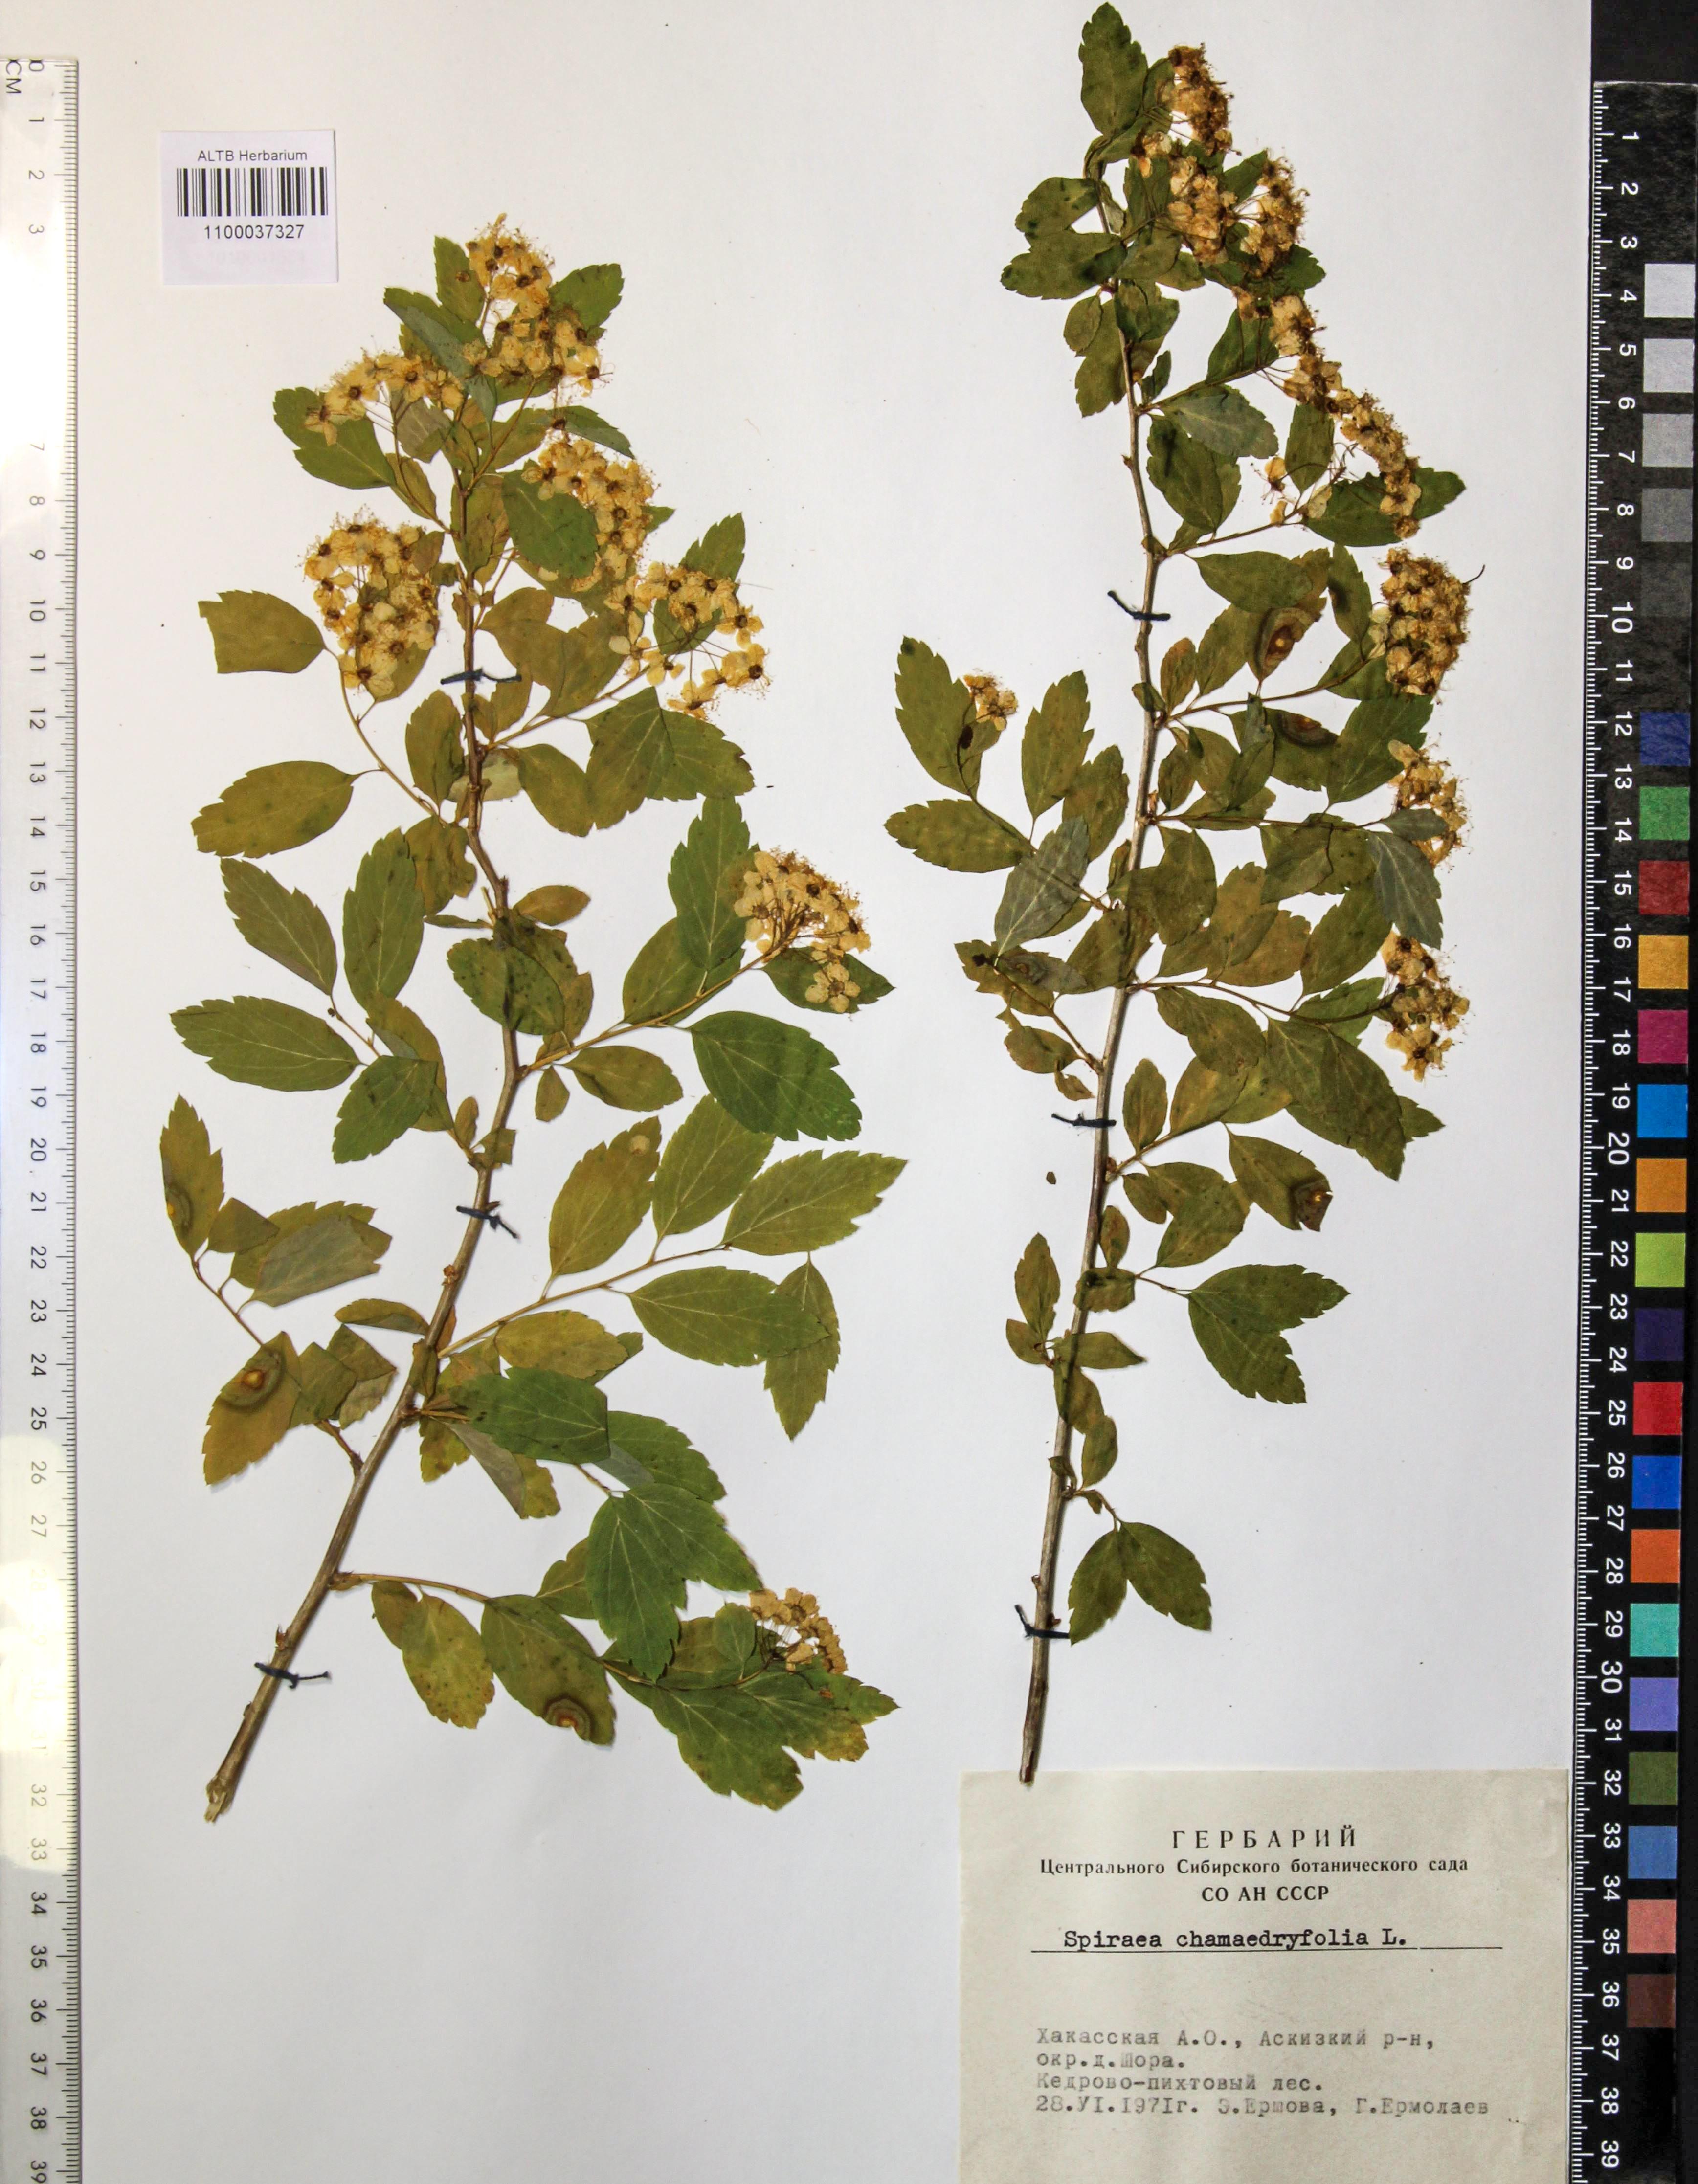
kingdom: Plantae
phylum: Tracheophyta
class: Magnoliopsida
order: Rosales
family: Rosaceae
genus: Spiraea
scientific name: Spiraea chamaedryfolia
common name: Elm-leaved spiraea
